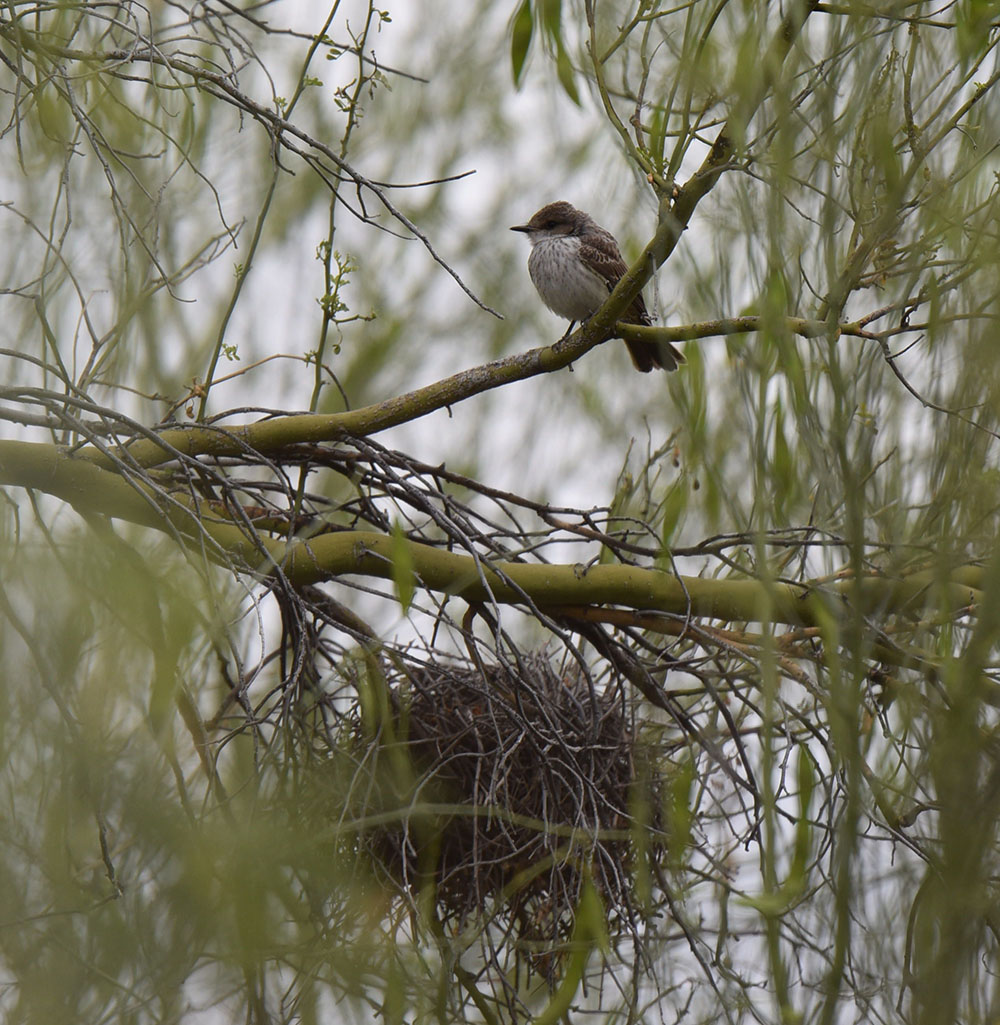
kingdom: Animalia
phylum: Chordata
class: Aves
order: Passeriformes
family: Tyrannidae
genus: Pyrocephalus
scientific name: Pyrocephalus rubinus
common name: Vermilion flycatcher
